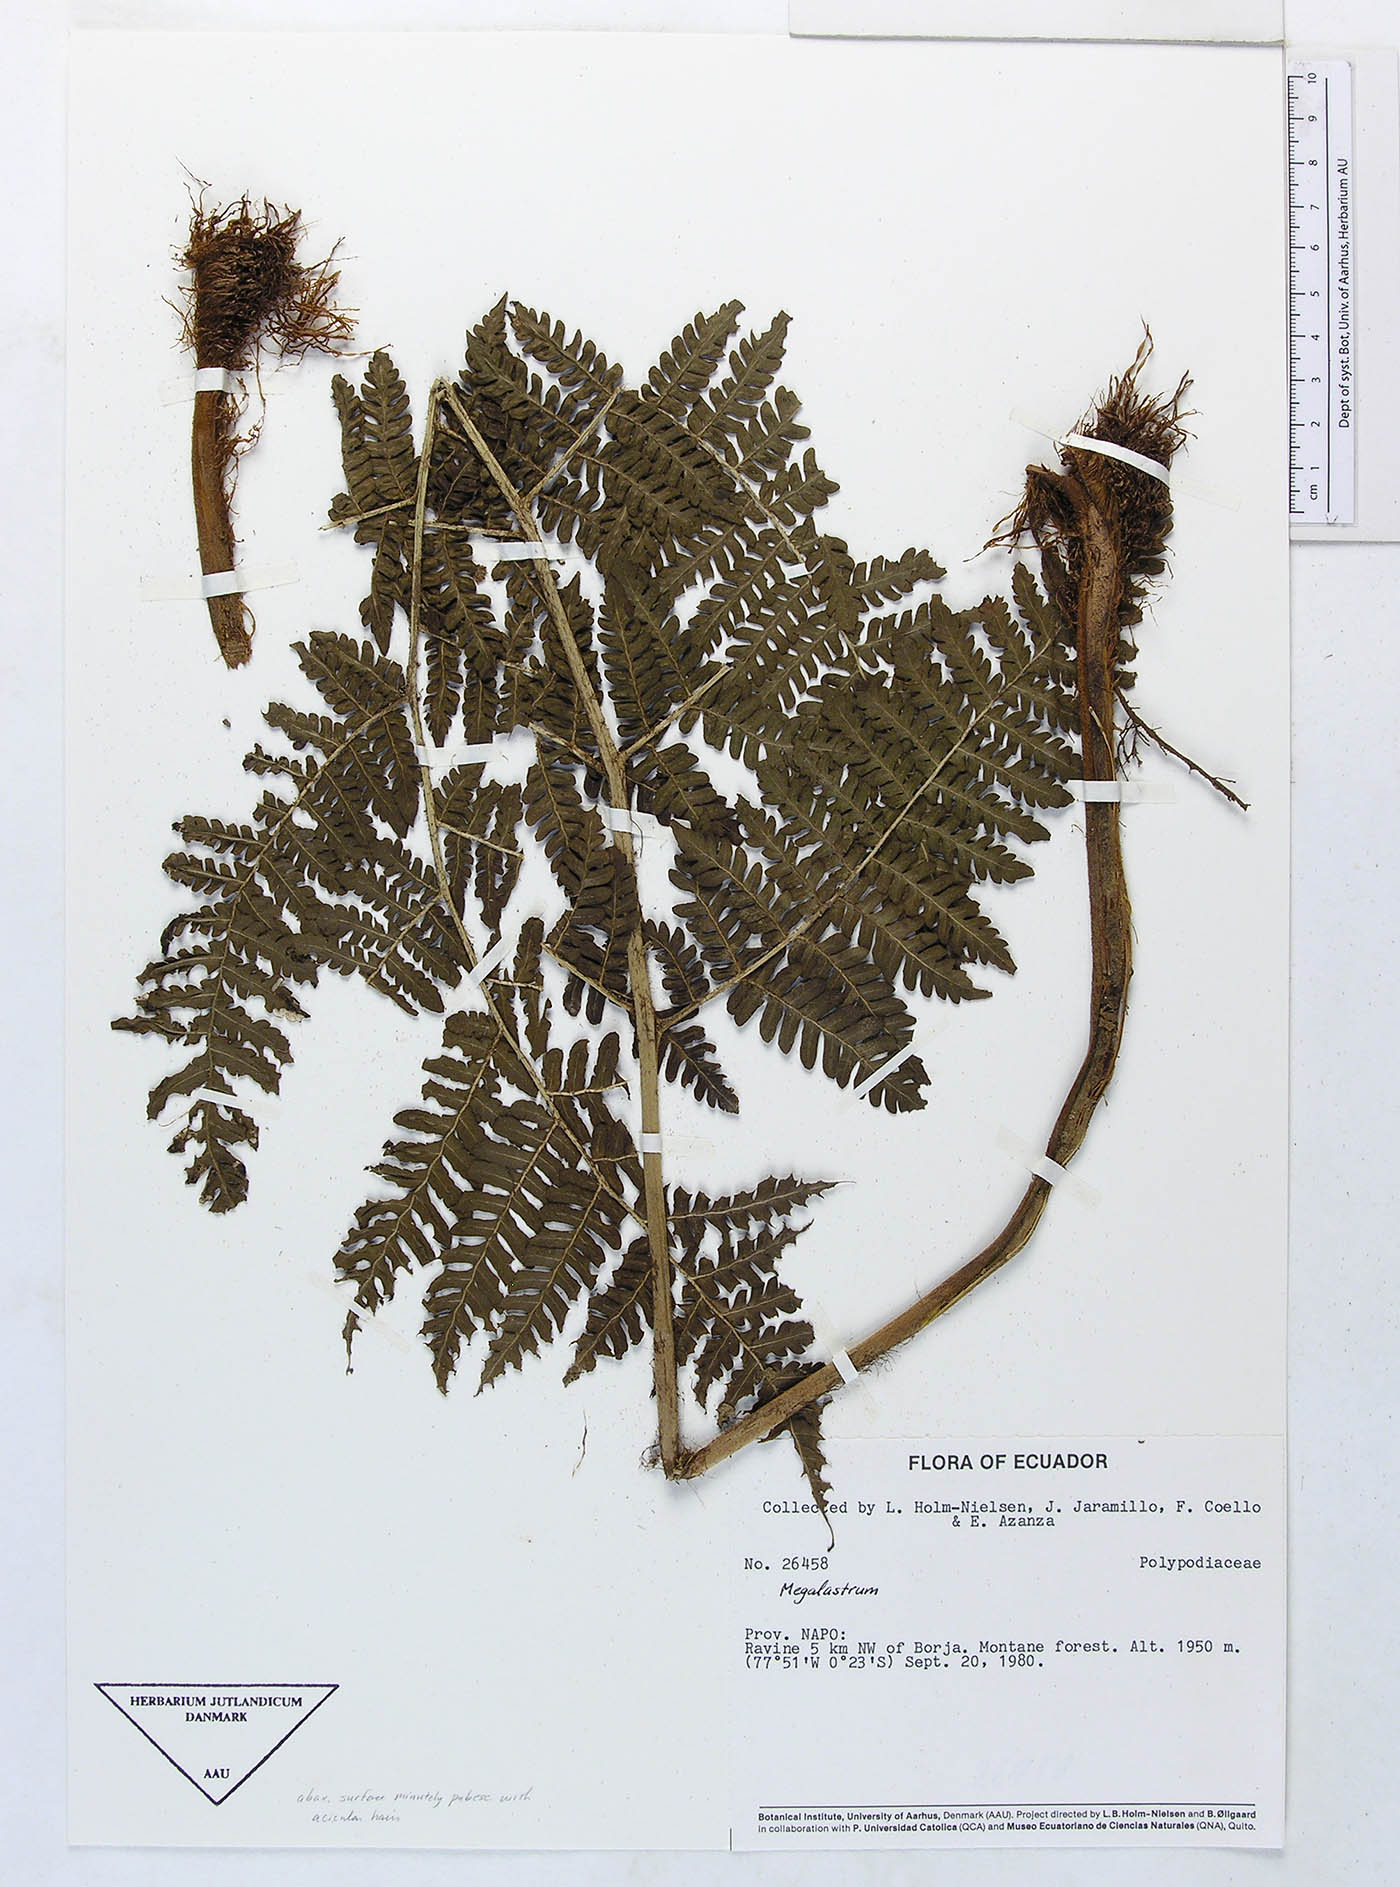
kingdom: Plantae
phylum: Tracheophyta
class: Polypodiopsida
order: Polypodiales
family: Dryopteridaceae
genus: Megalastrum
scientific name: Megalastrum pubirhachis
